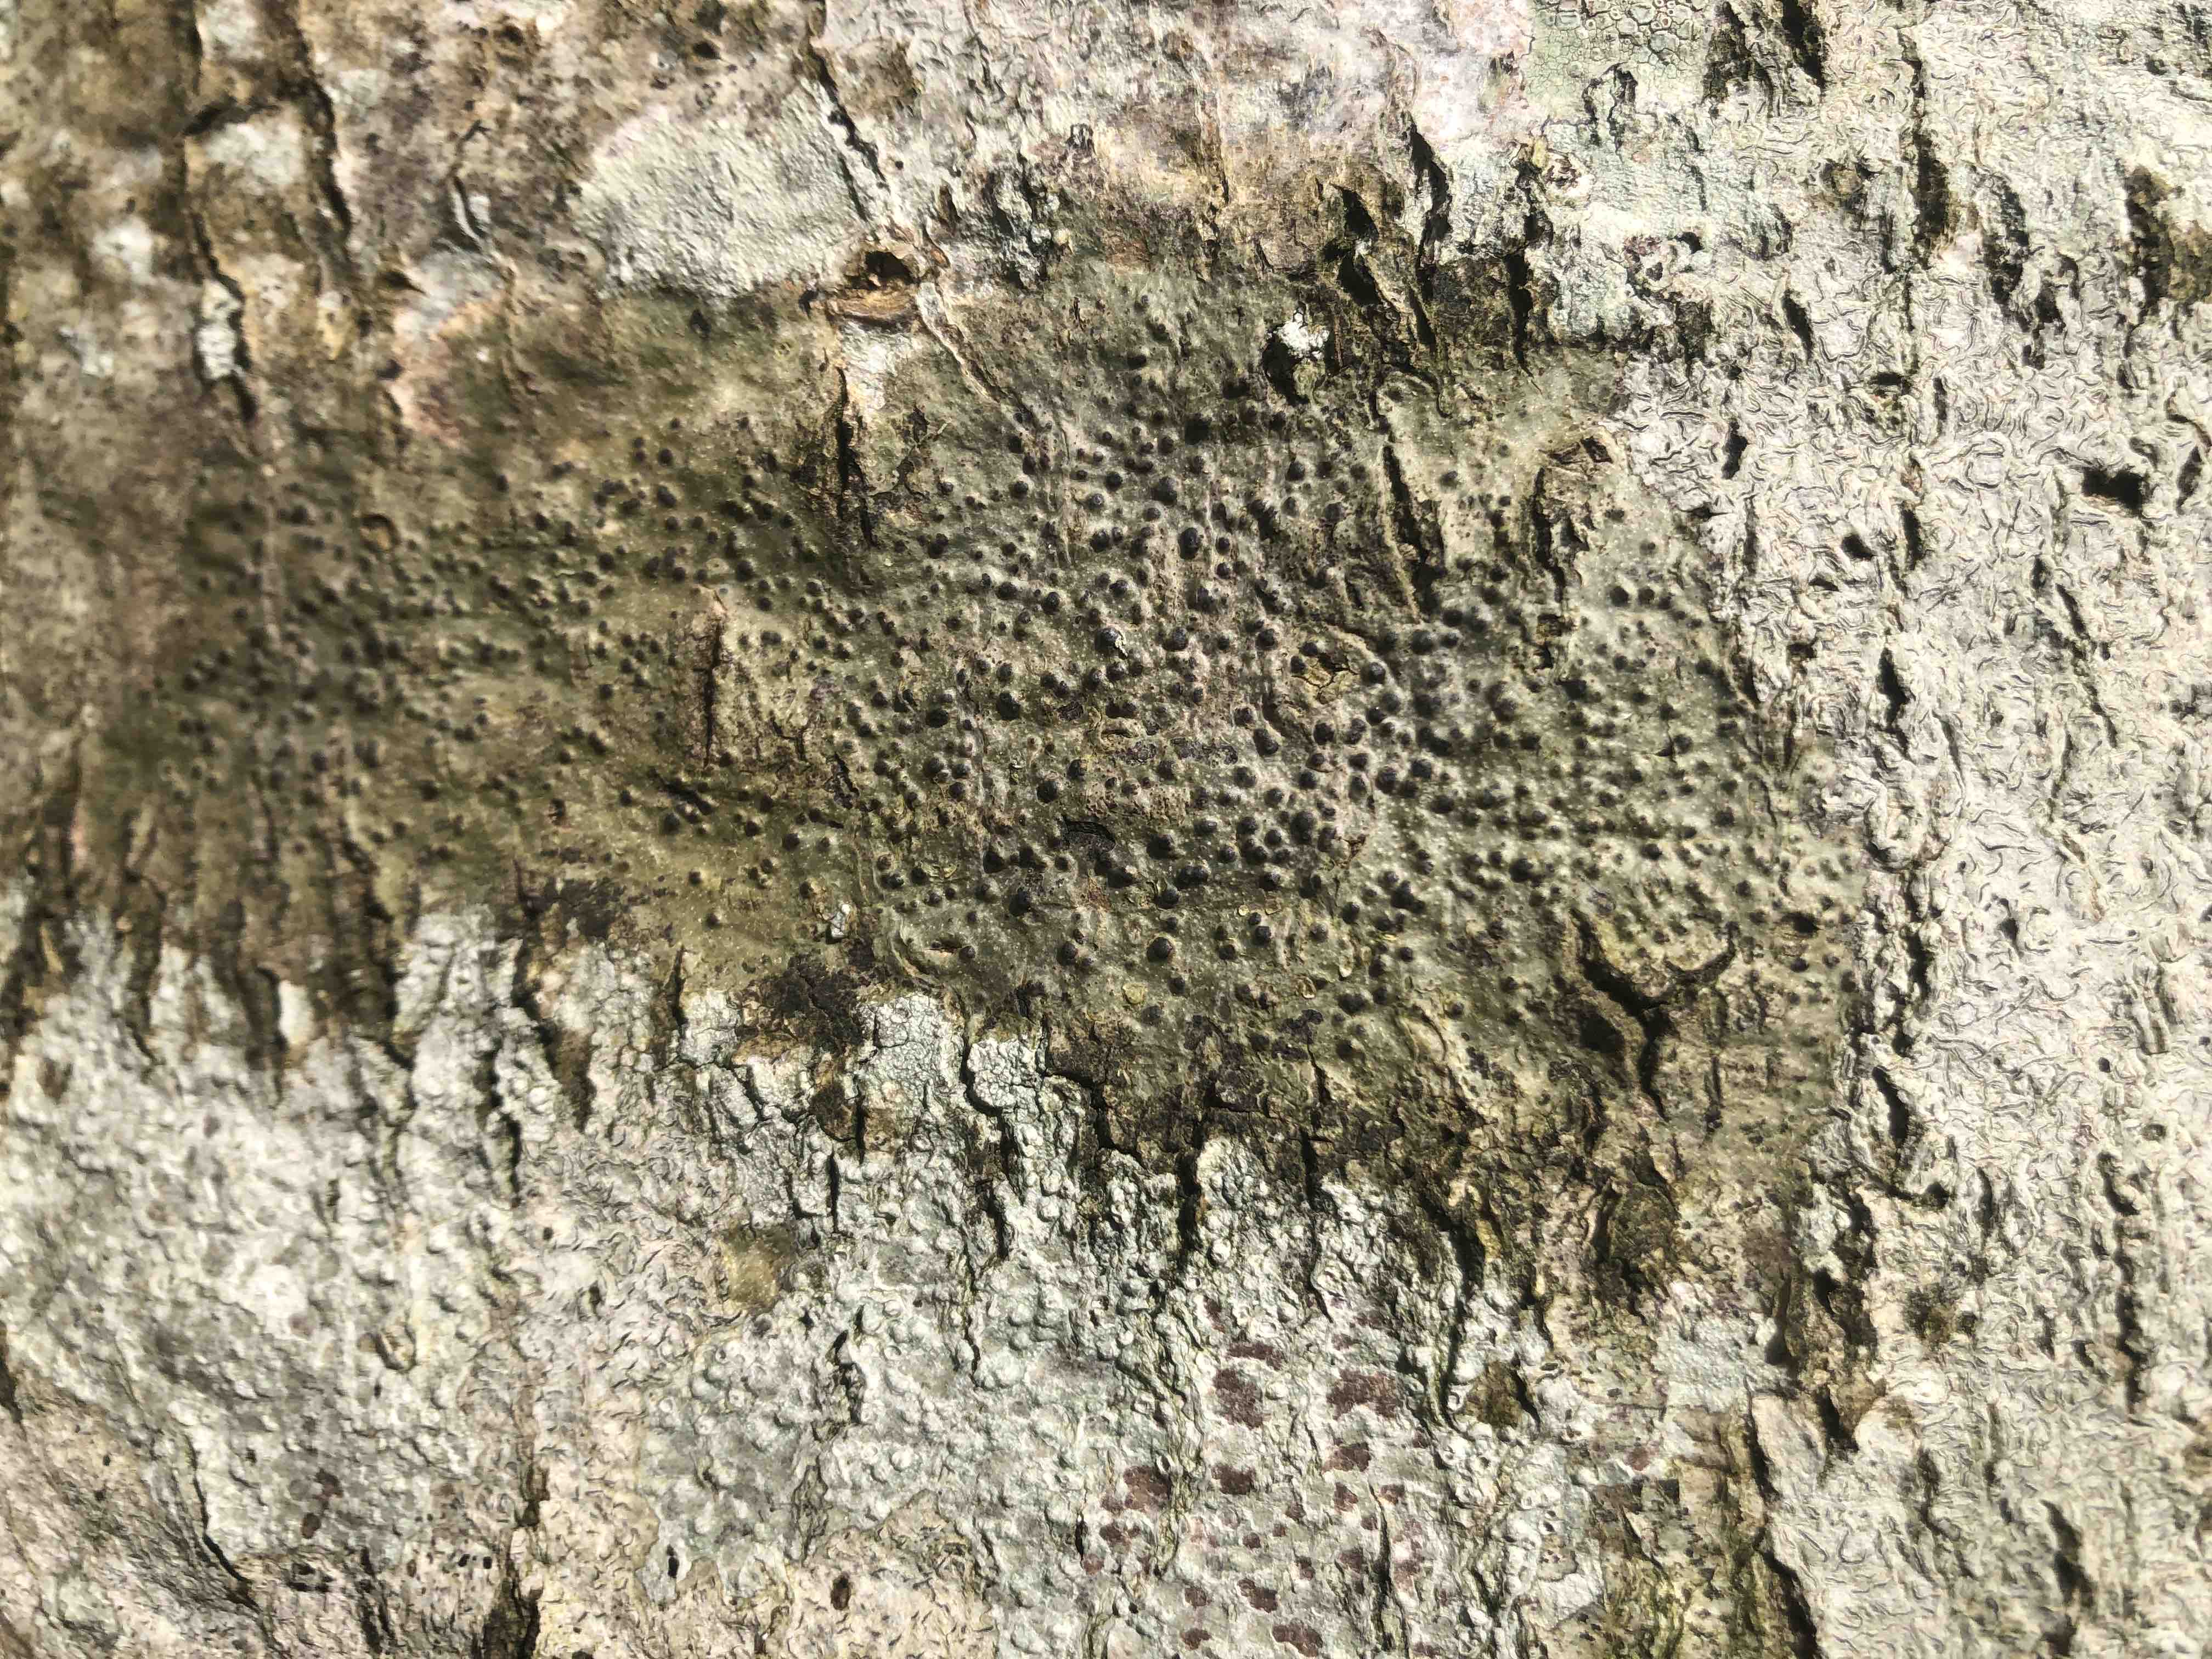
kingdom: Fungi
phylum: Ascomycota
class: Eurotiomycetes
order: Pyrenulales
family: Pyrenulaceae
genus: Pyrenula
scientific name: Pyrenula nitida
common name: glinsende kernelav
